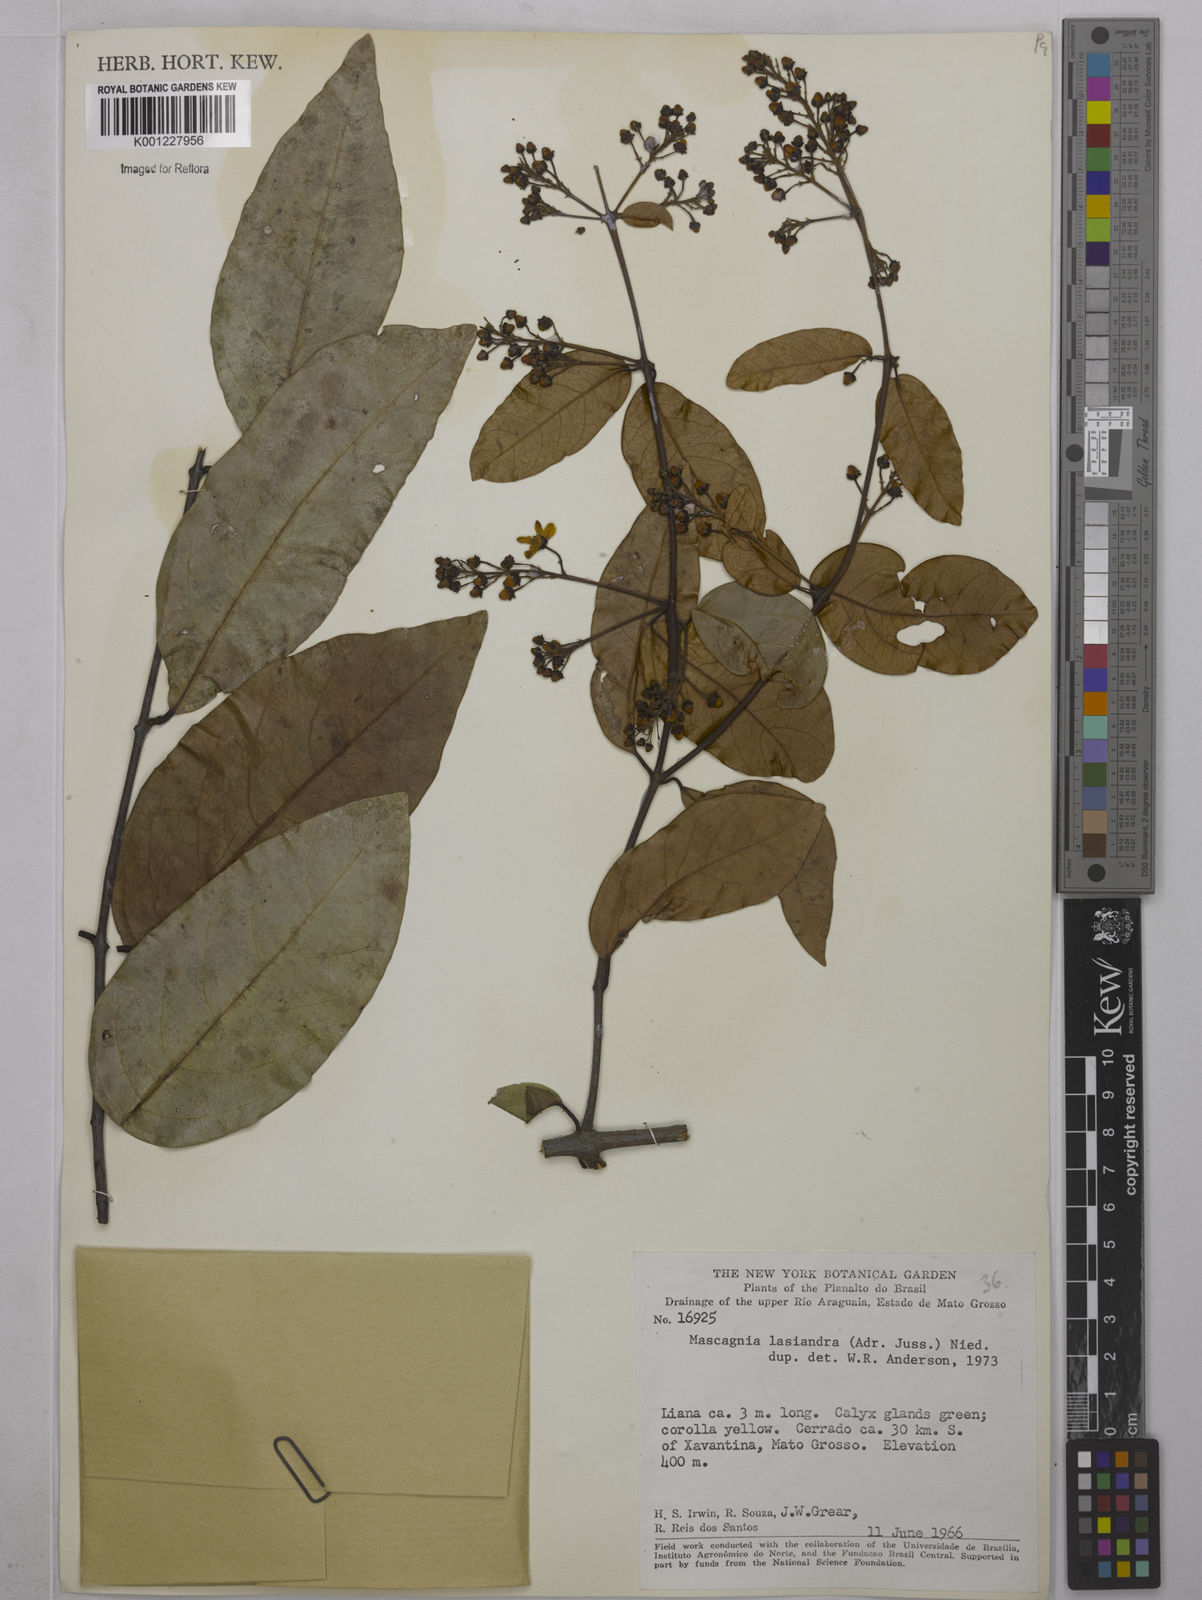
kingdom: Plantae
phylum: Tracheophyta
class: Magnoliopsida
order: Malpighiales
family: Malpighiaceae
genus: Niedenzuella
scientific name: Niedenzuella lasiandra
